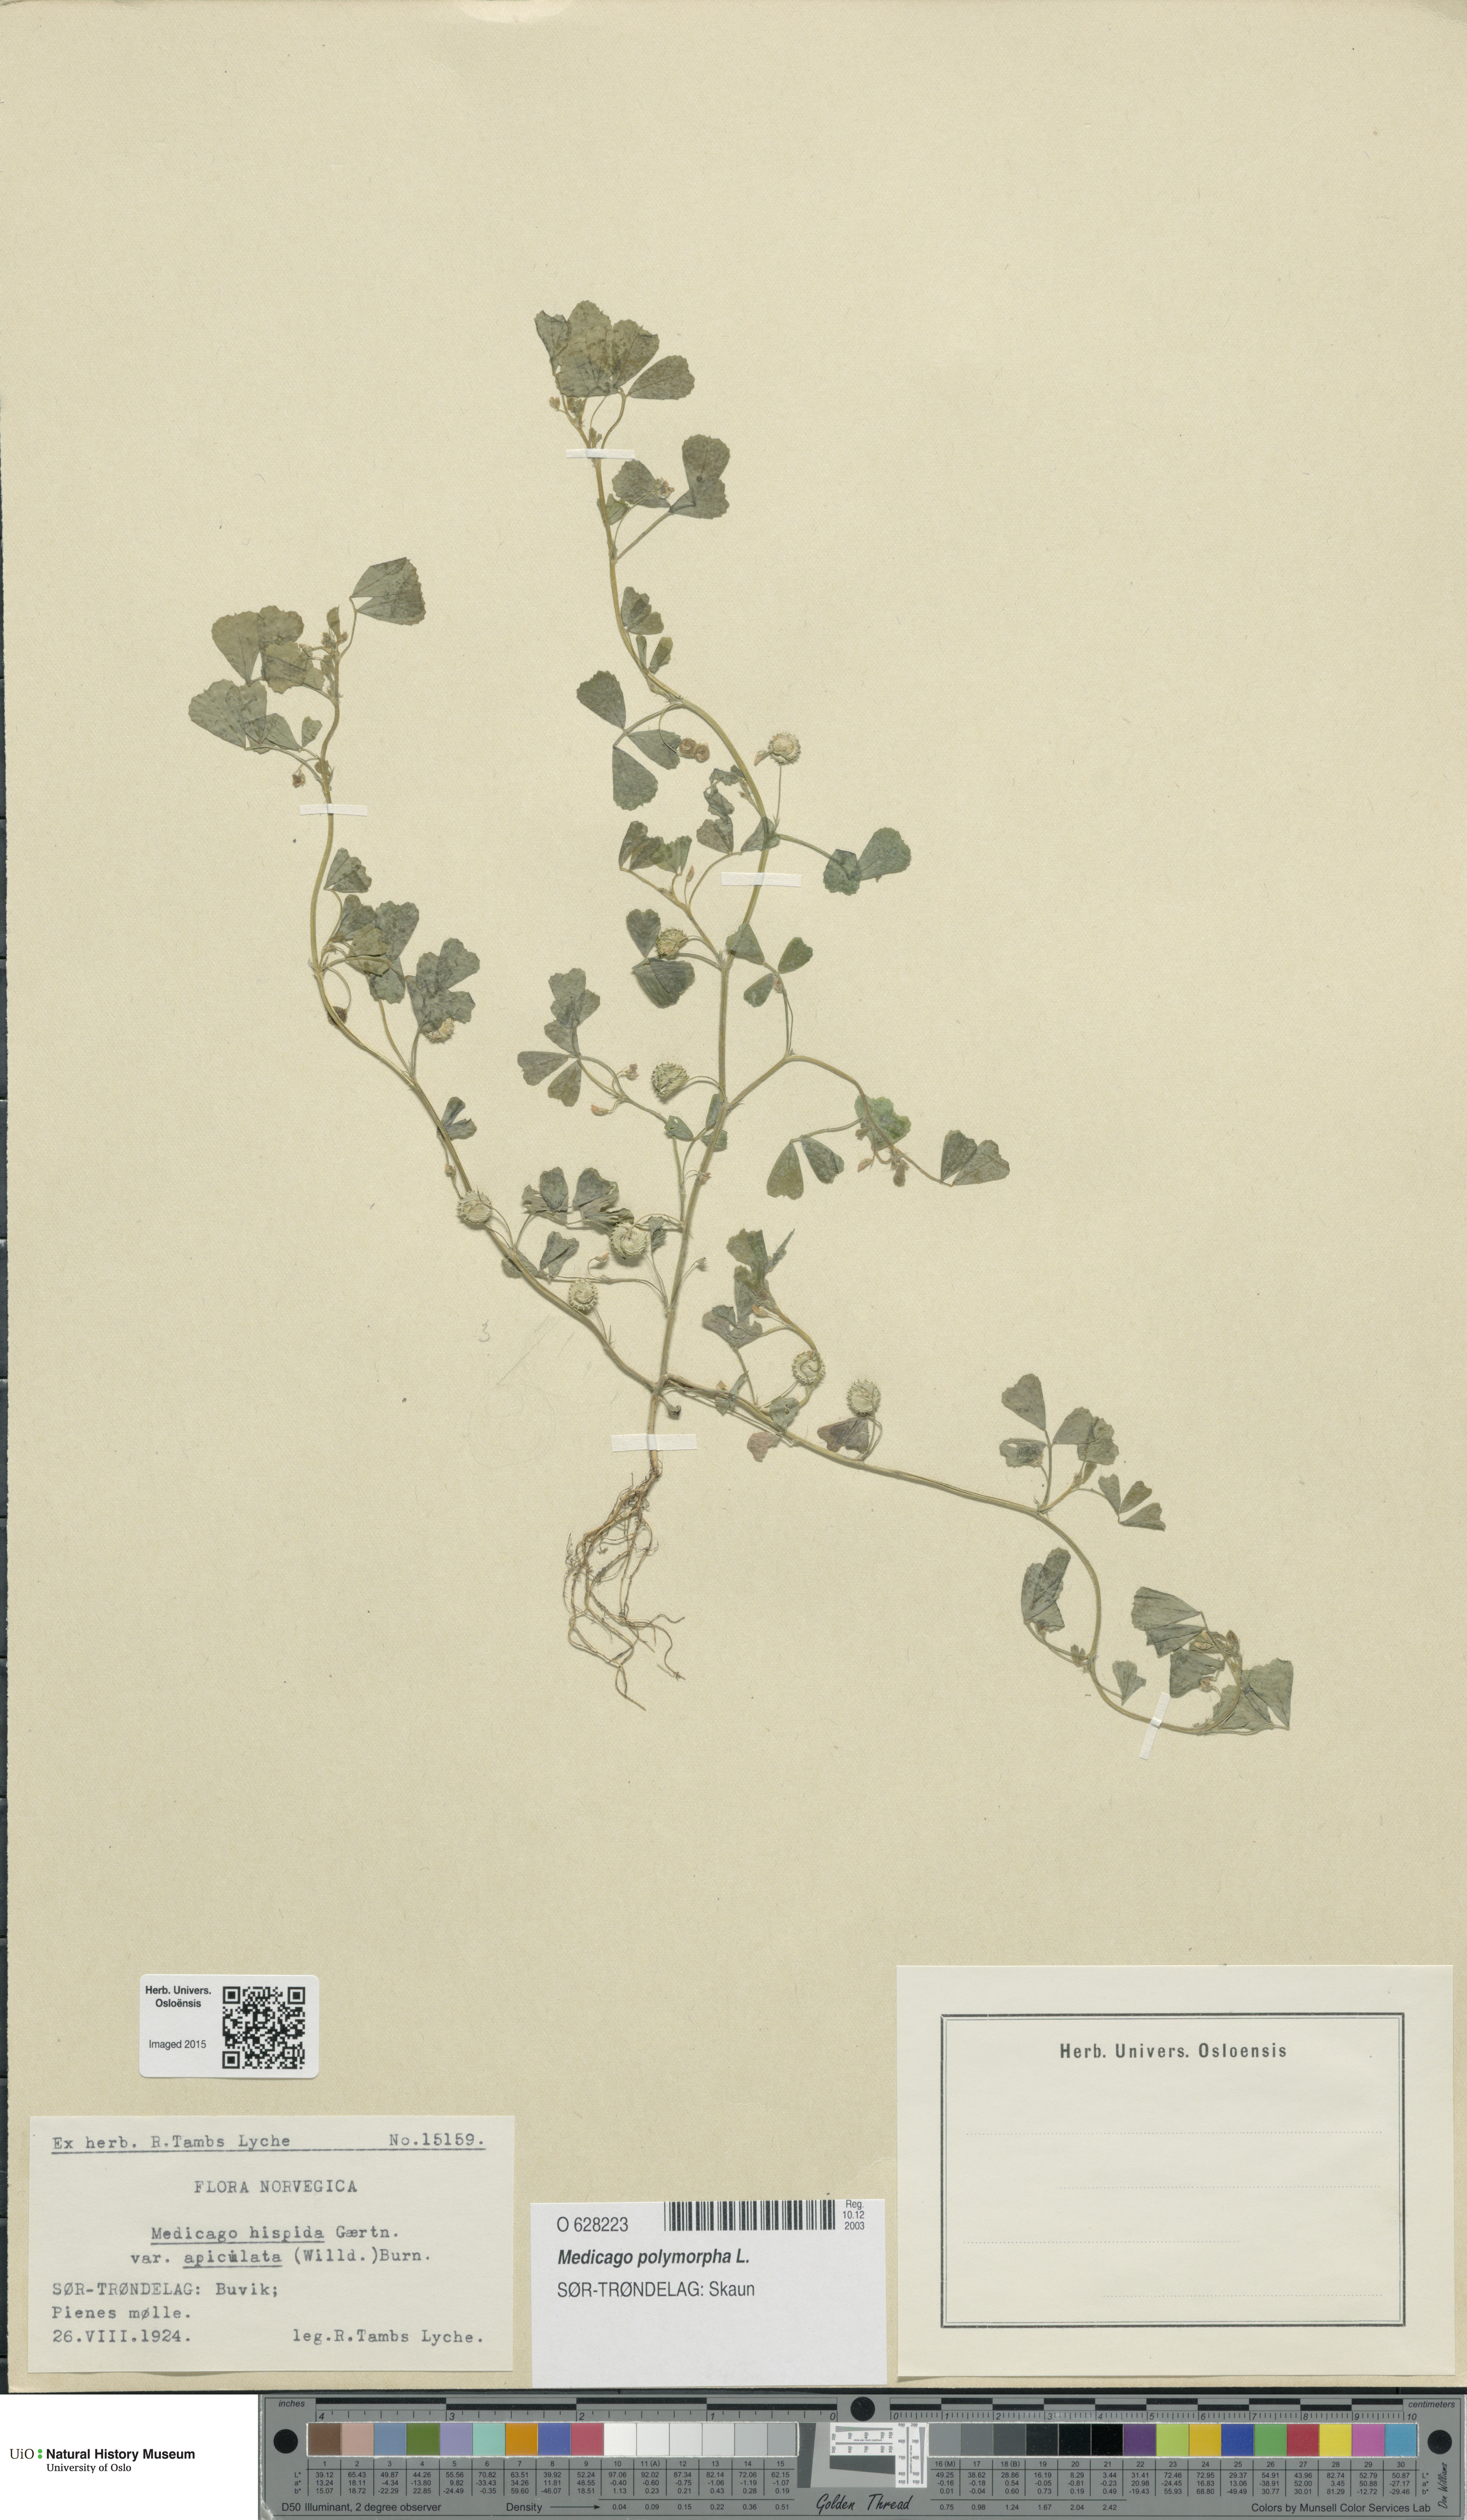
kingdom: Plantae
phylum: Tracheophyta
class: Magnoliopsida
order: Fabales
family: Fabaceae
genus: Medicago
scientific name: Medicago polymorpha
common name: Burclover
